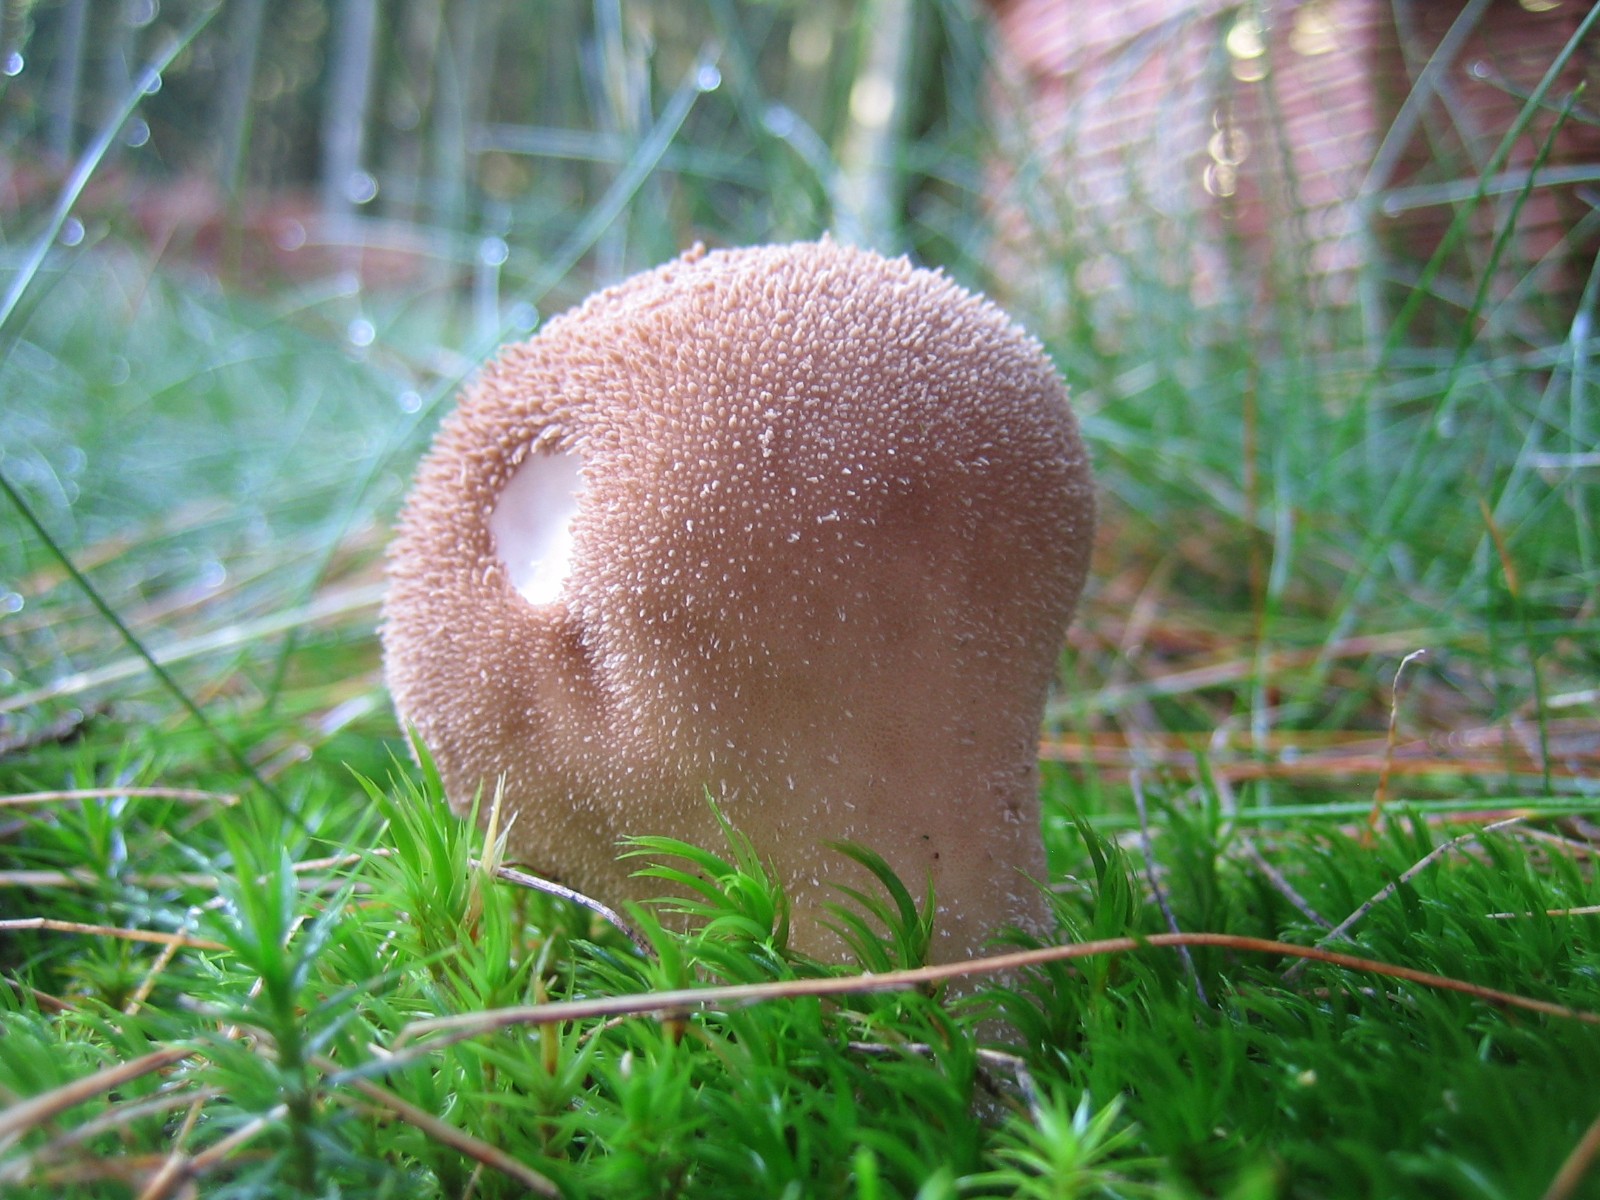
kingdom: Fungi
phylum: Basidiomycota
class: Agaricomycetes
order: Agaricales
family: Lycoperdaceae
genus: Lycoperdon
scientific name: Lycoperdon perlatum
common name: krystal-støvbold
